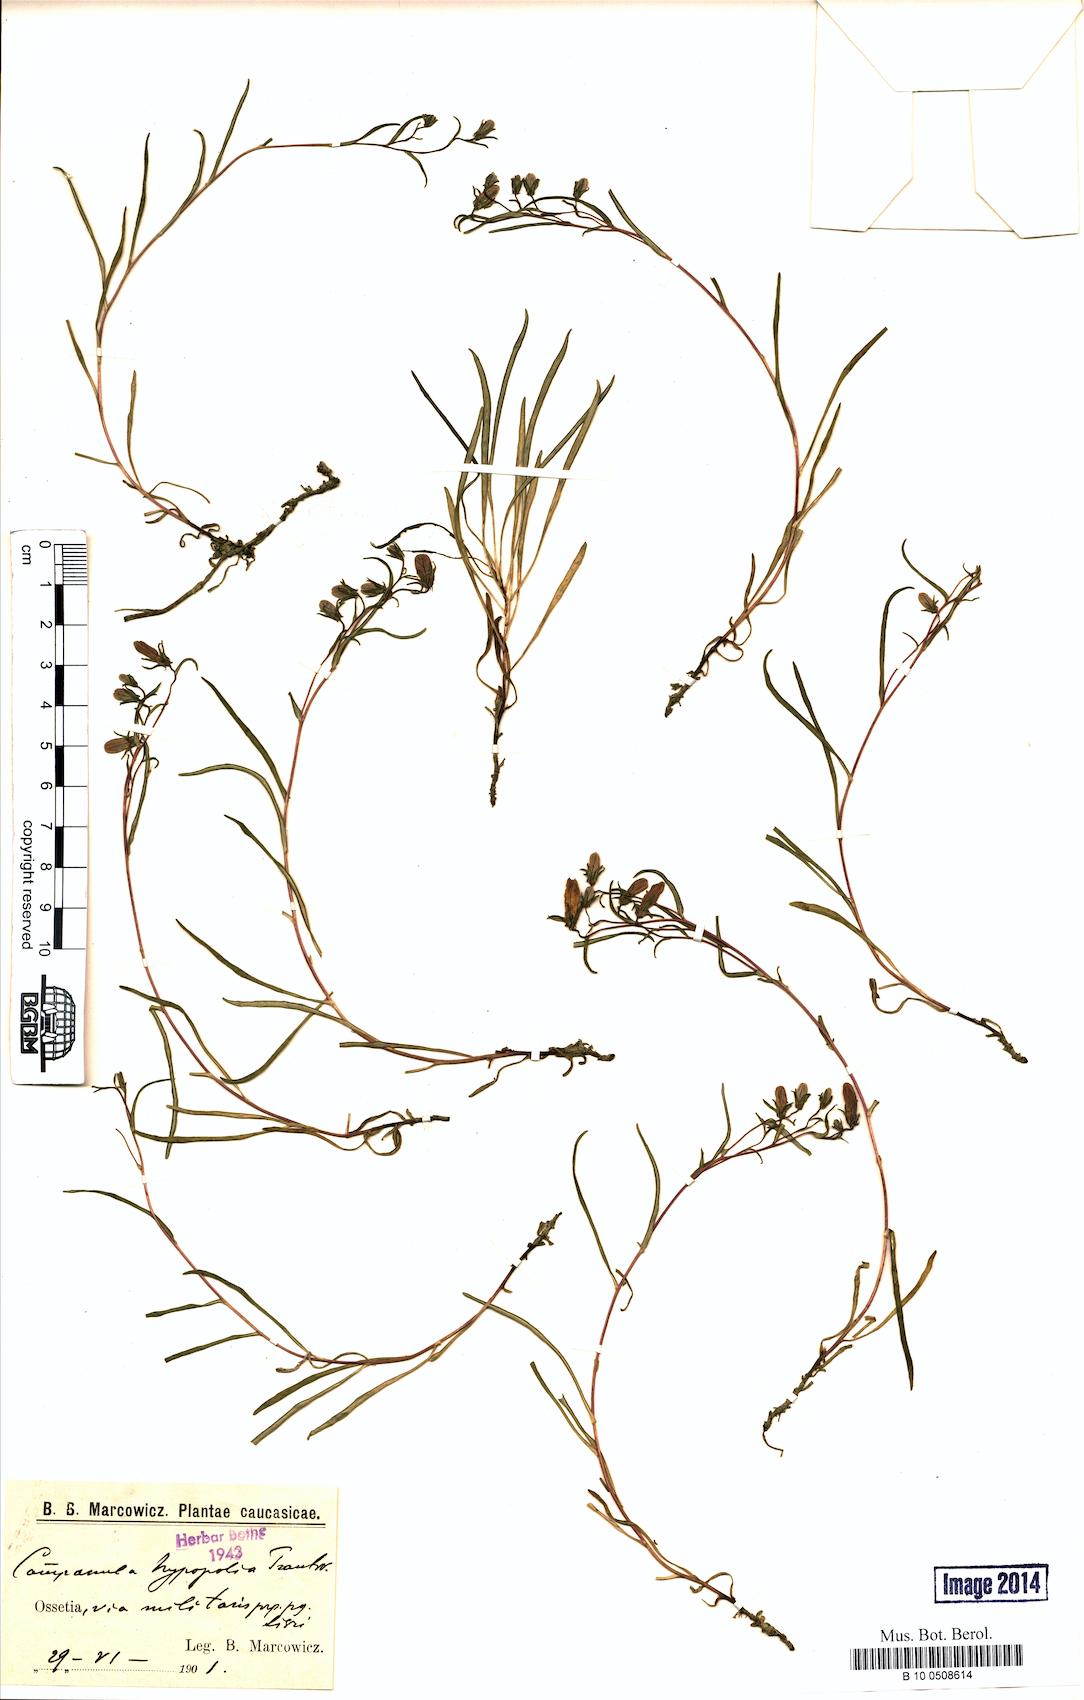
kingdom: Plantae
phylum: Tracheophyta
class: Magnoliopsida
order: Asterales
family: Campanulaceae
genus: Campanula
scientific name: Campanula hypopolia
